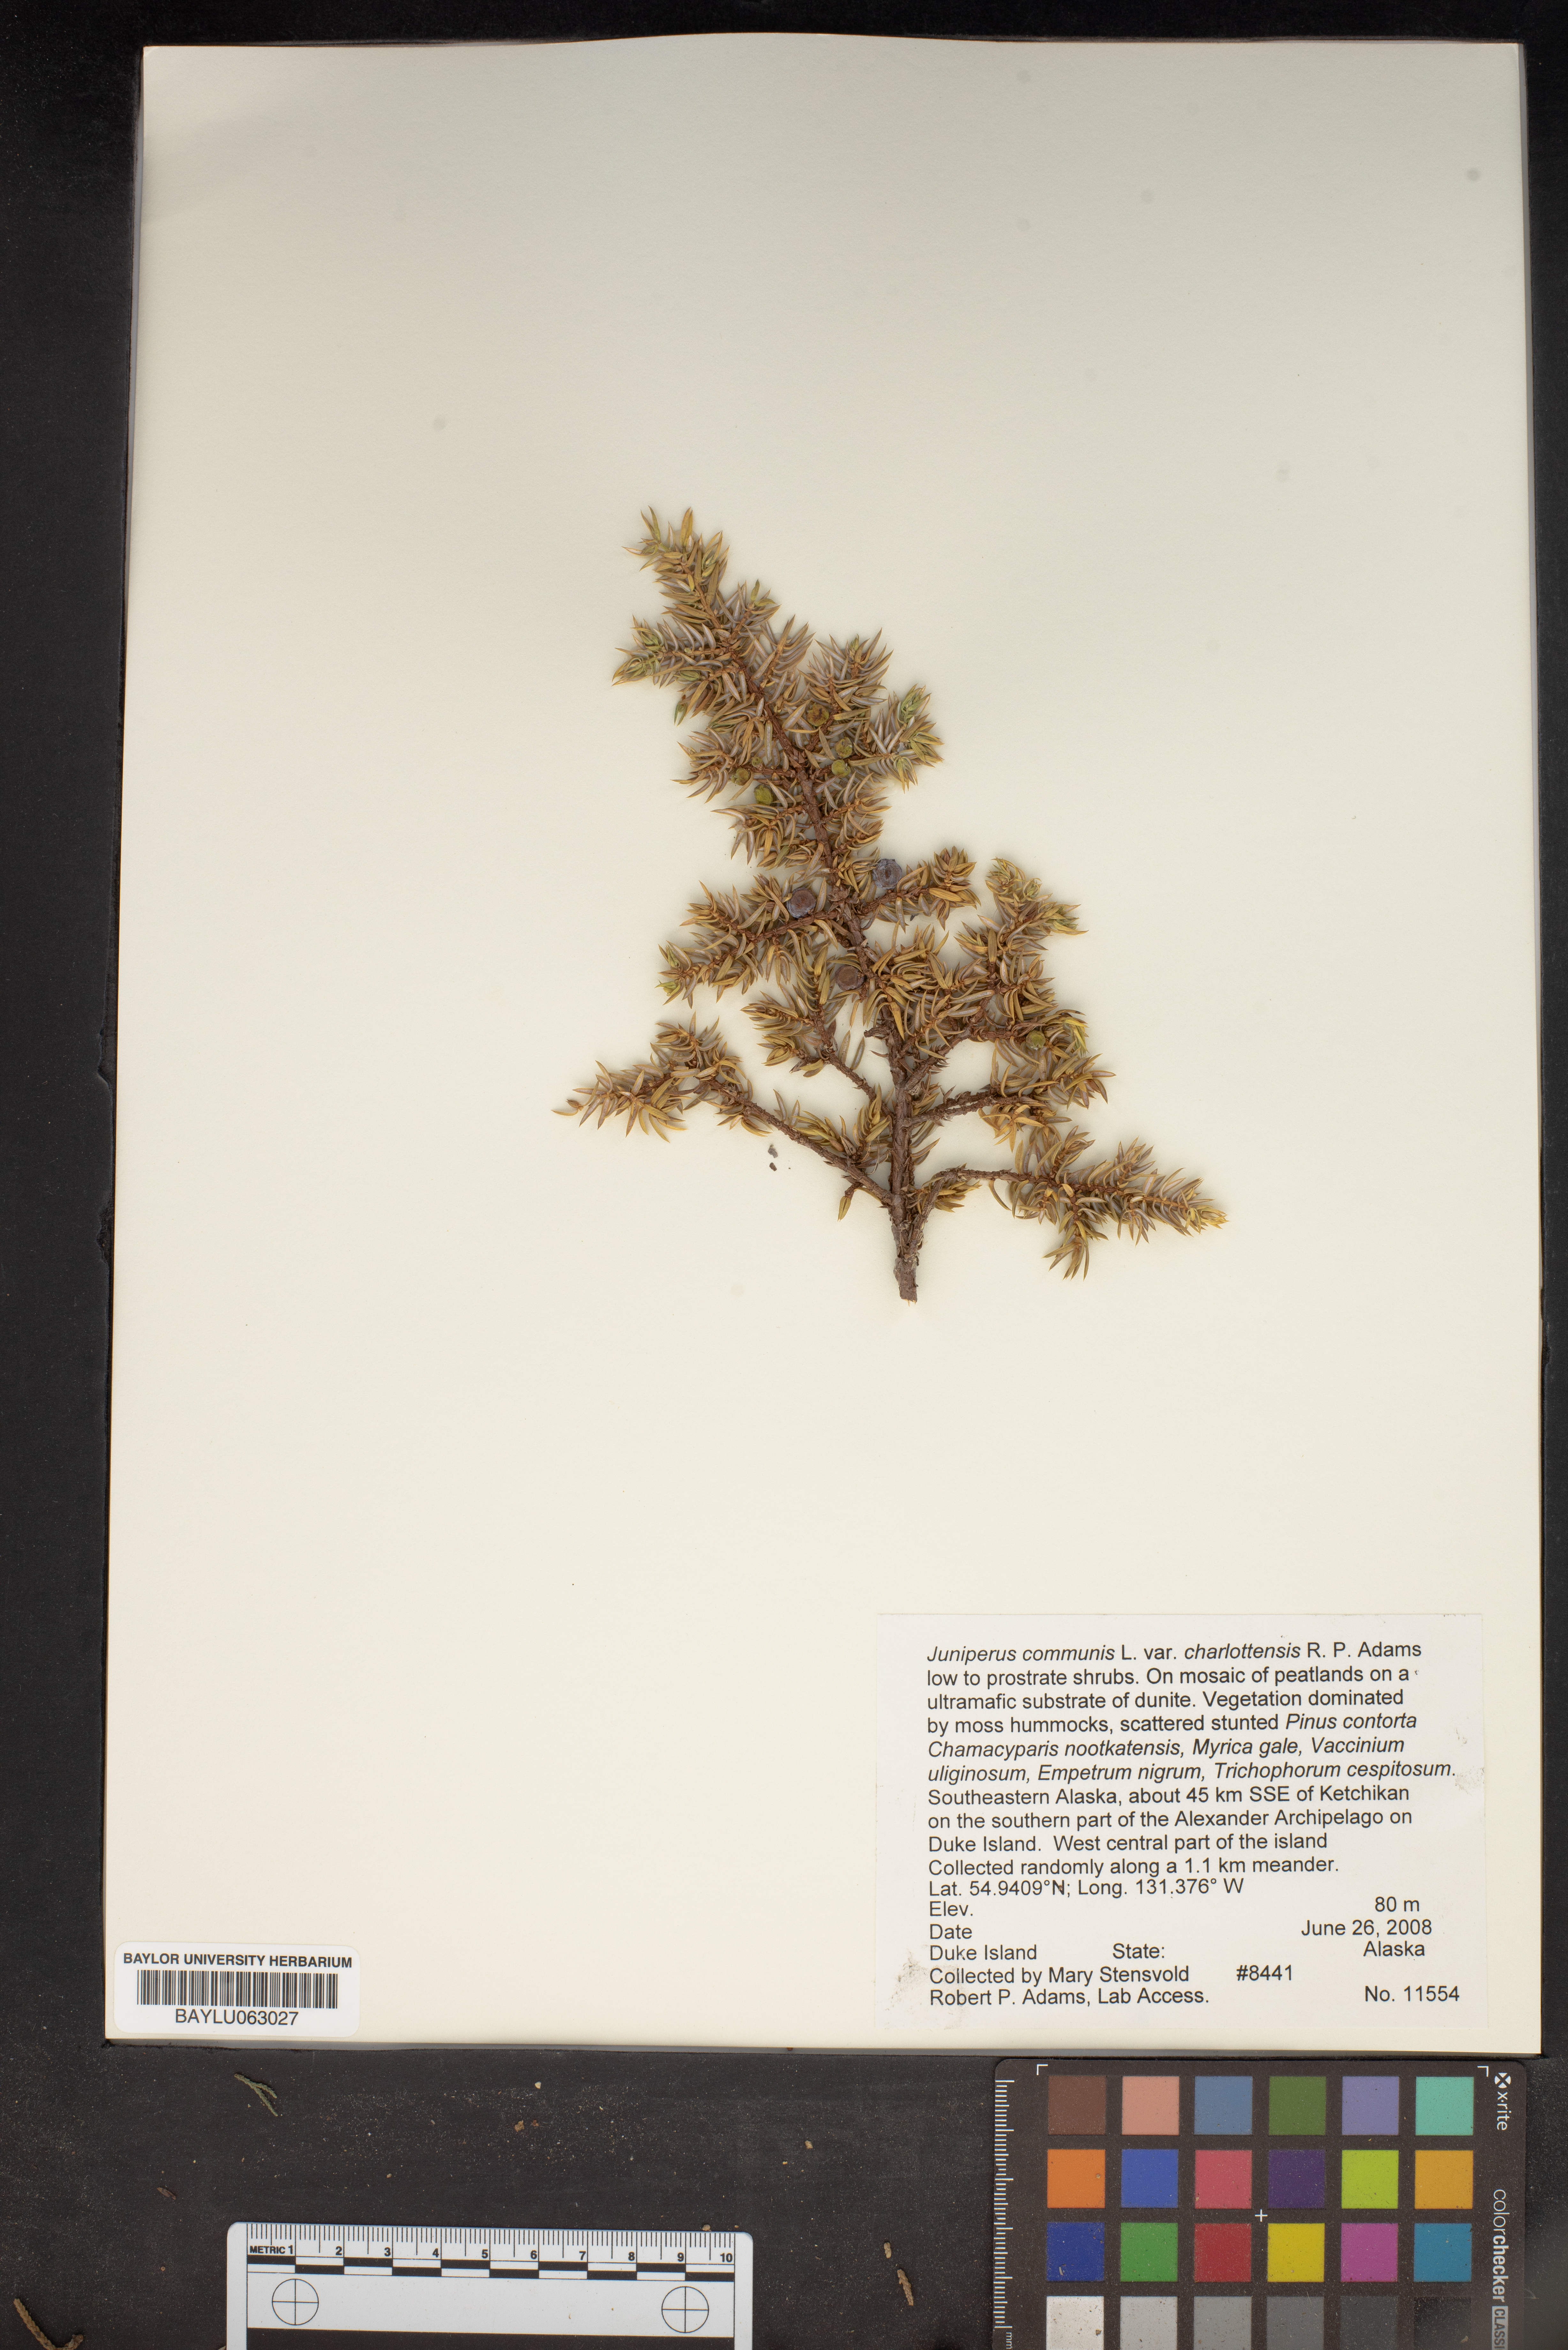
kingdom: Plantae
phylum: Tracheophyta
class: Pinopsida
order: Pinales
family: Cupressaceae
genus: Juniperus
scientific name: Juniperus communis
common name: Common juniper
